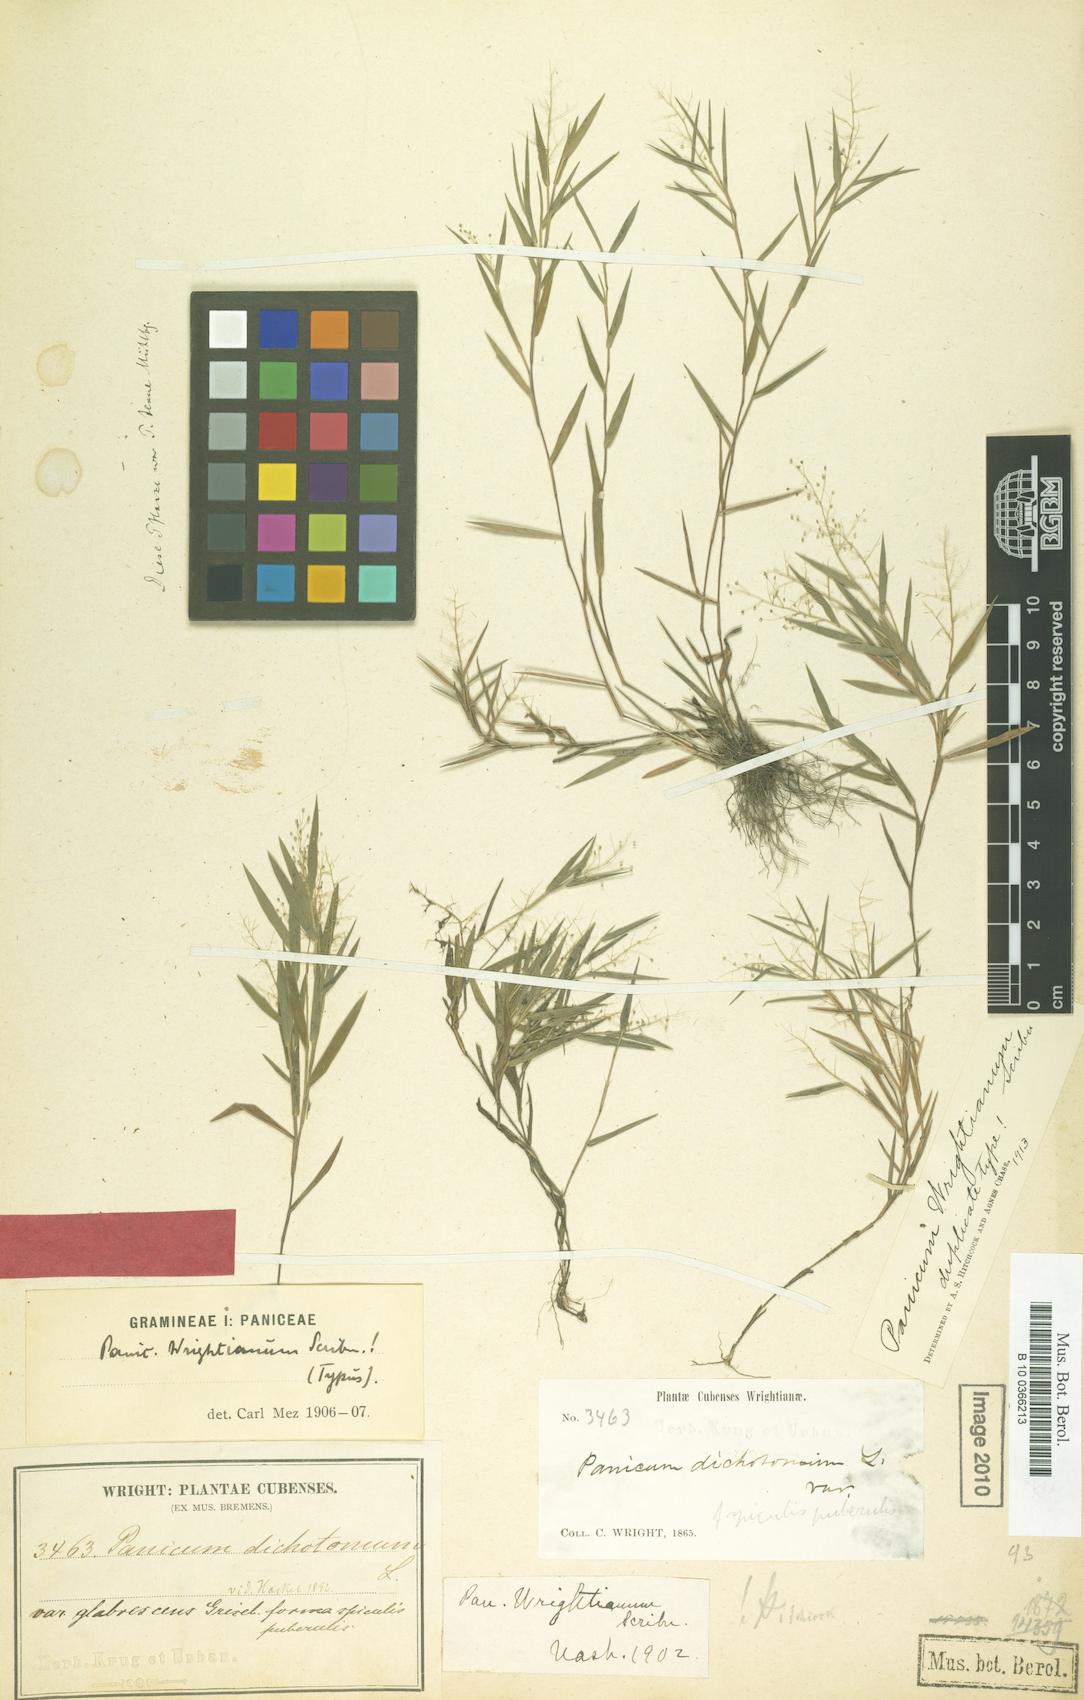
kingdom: Plantae
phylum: Tracheophyta
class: Liliopsida
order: Poales
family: Poaceae
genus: Dichanthelium
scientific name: Dichanthelium wrightianum
